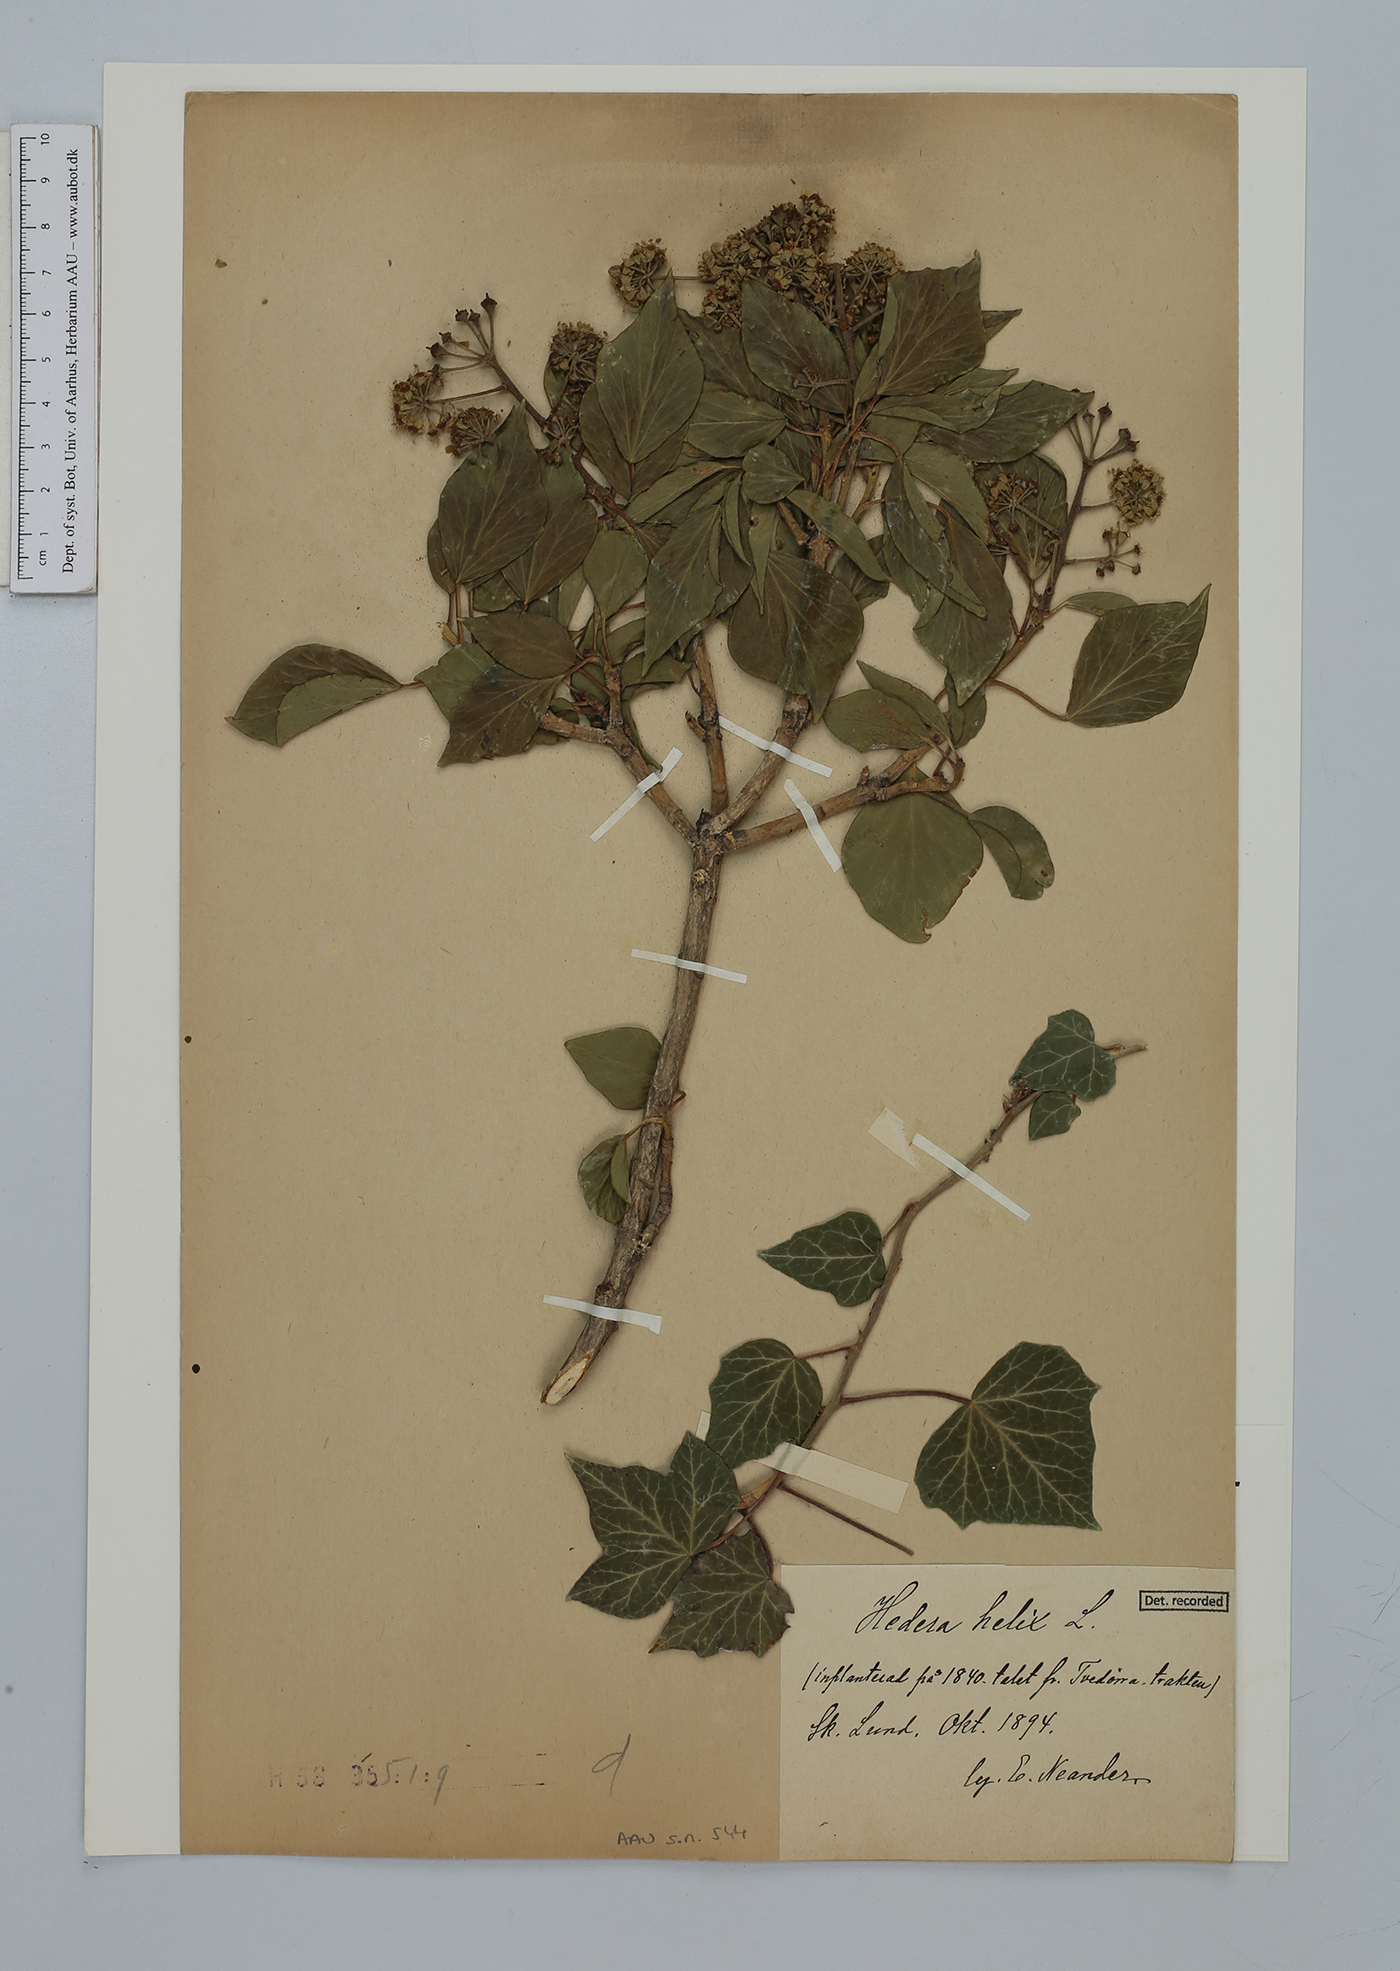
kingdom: Plantae
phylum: Tracheophyta
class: Magnoliopsida
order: Apiales
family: Araliaceae
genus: Hedera
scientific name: Hedera helix
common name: Ivy
